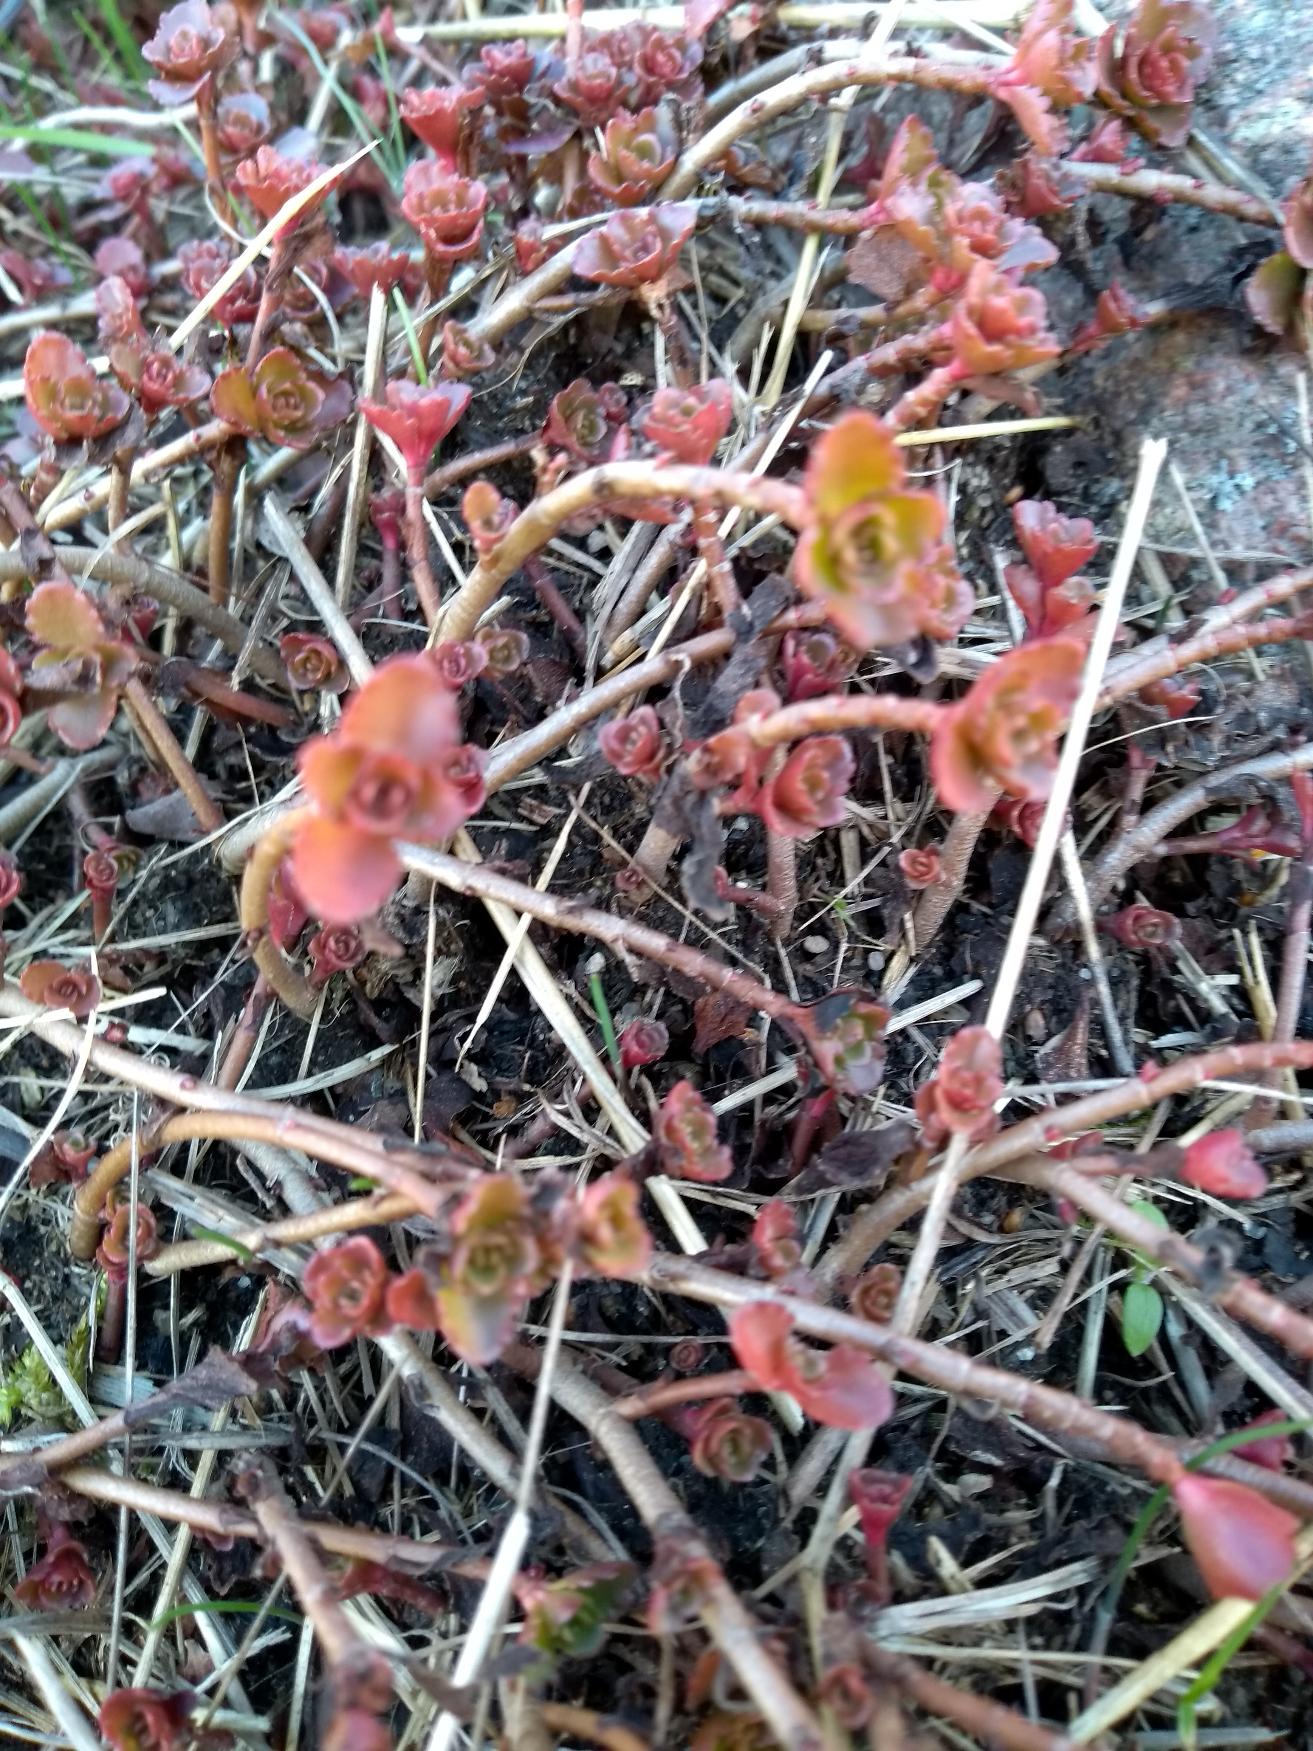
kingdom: Plantae
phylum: Tracheophyta
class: Magnoliopsida
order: Saxifragales
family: Crassulaceae
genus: Phedimus
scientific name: Phedimus spurius
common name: Rød stenurt
